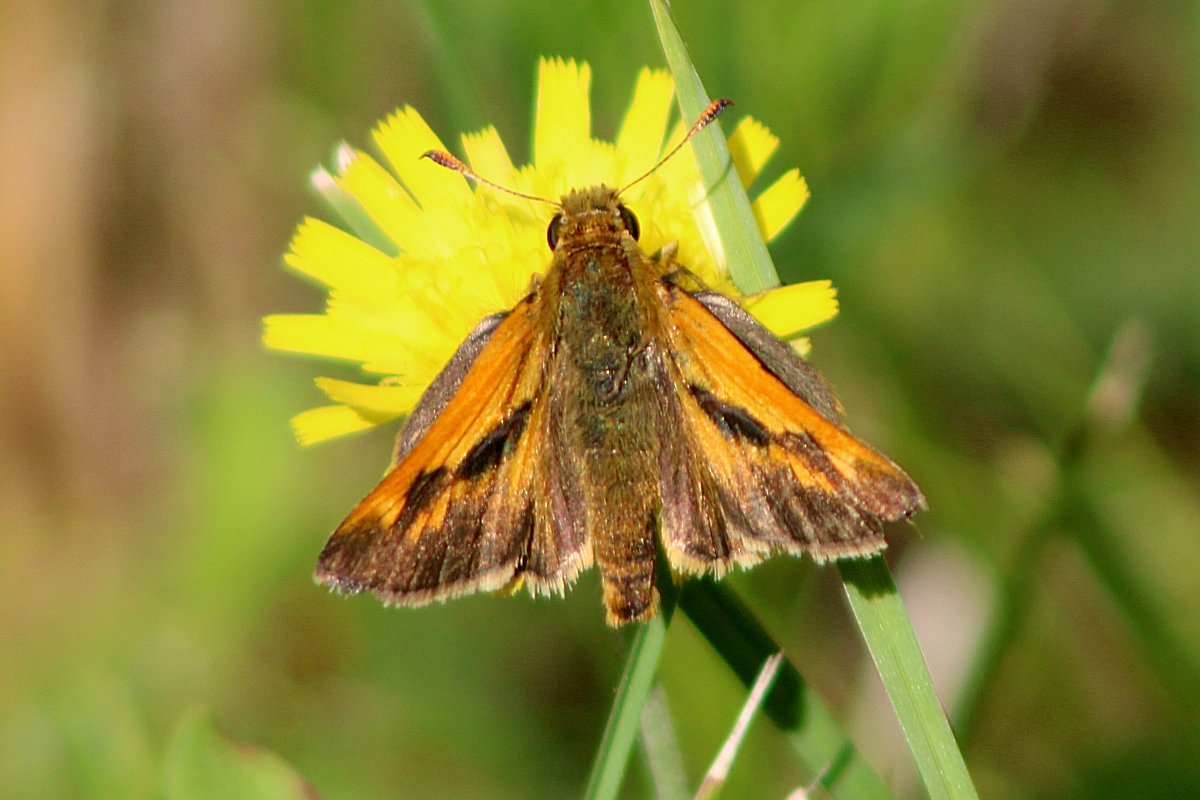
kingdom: Animalia
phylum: Arthropoda
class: Insecta
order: Lepidoptera
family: Hesperiidae
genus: Polites
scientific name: Polites
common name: Long Dash Skipper
